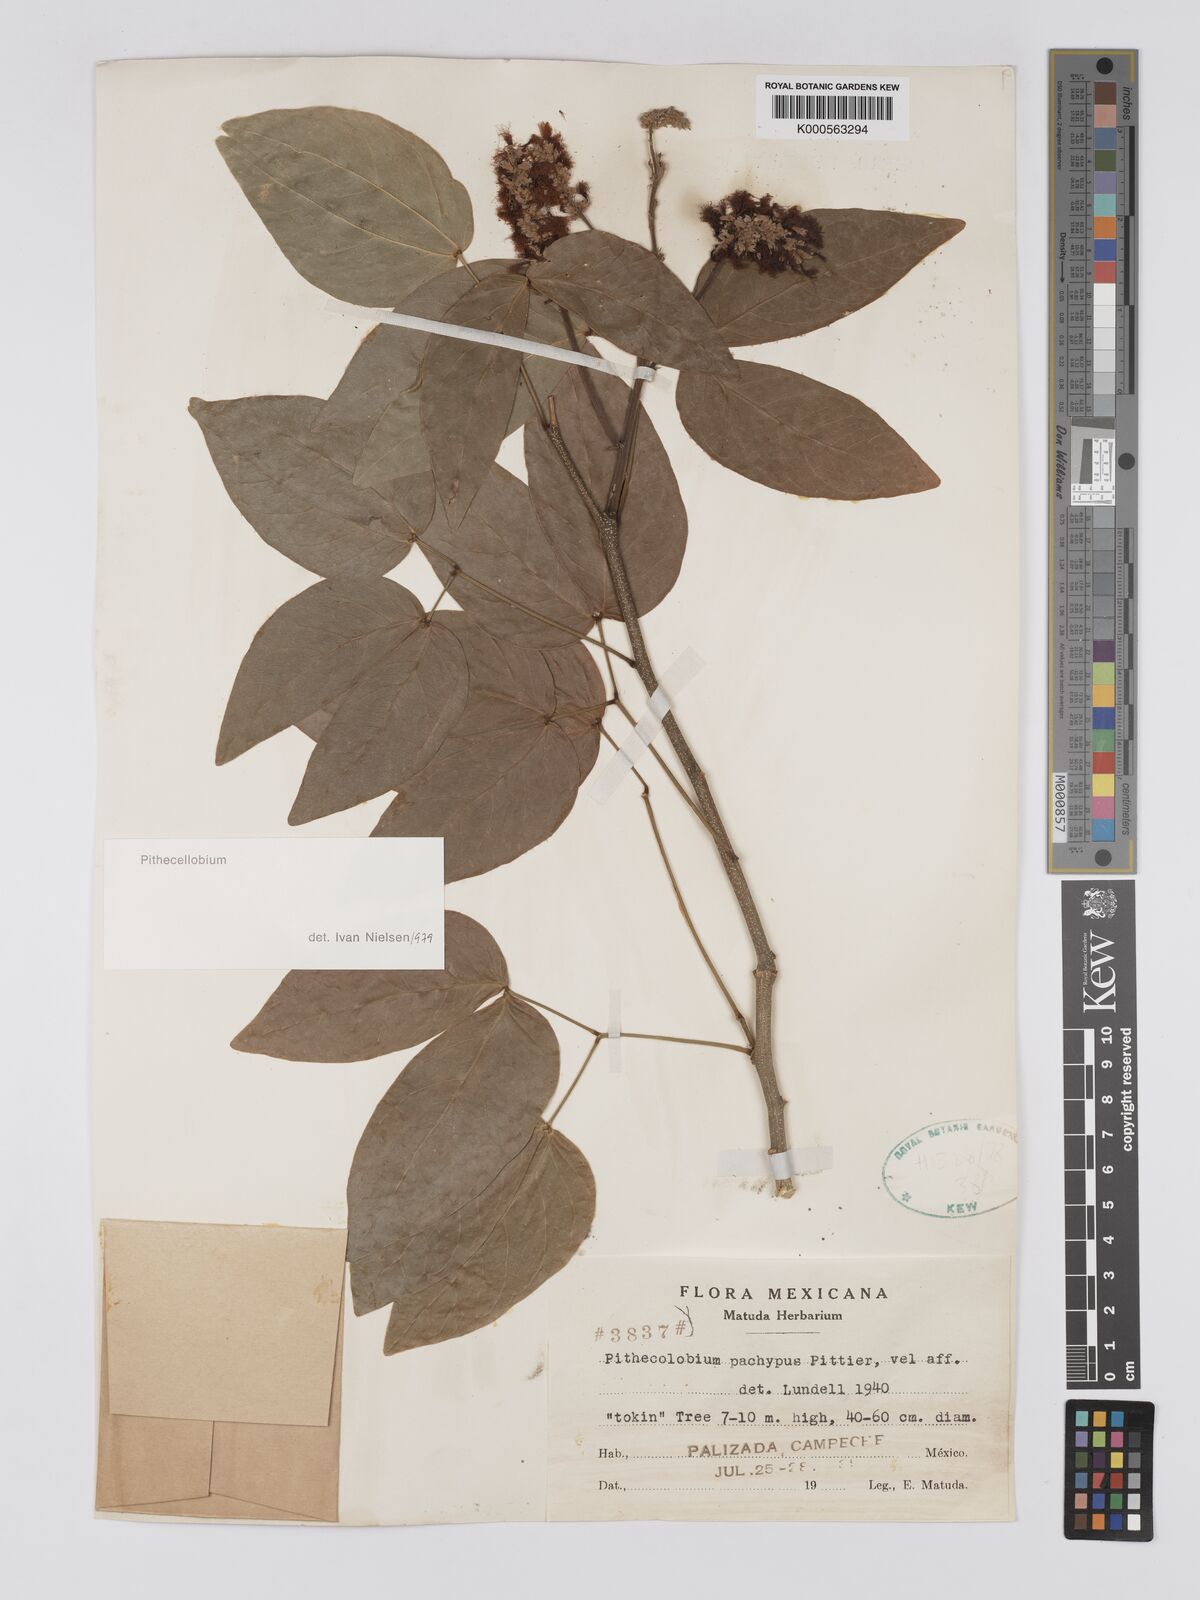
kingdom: Plantae
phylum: Tracheophyta
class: Magnoliopsida
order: Fabales
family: Fabaceae
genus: Pithecellobium
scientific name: Pithecellobium lanceolatum
